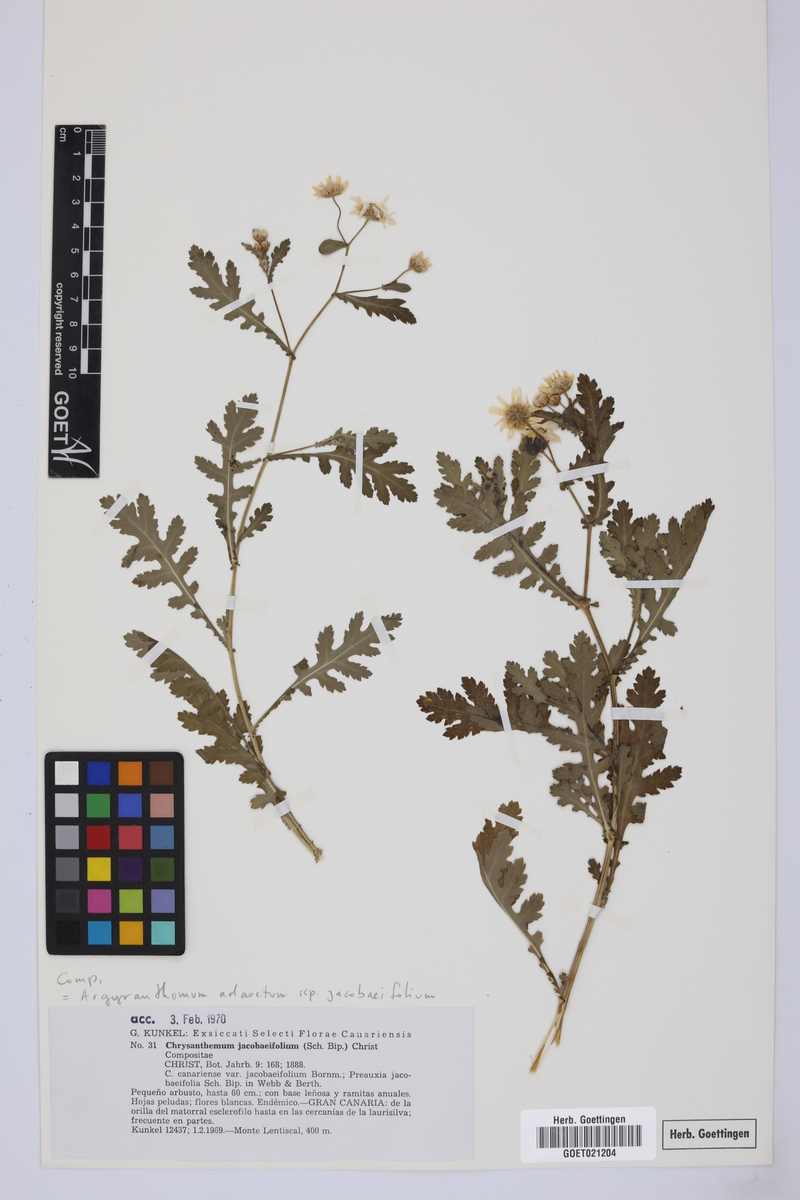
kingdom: Plantae
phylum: Tracheophyta
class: Magnoliopsida
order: Asterales
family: Asteraceae
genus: Argyranthemum
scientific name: Argyranthemum adauctum
